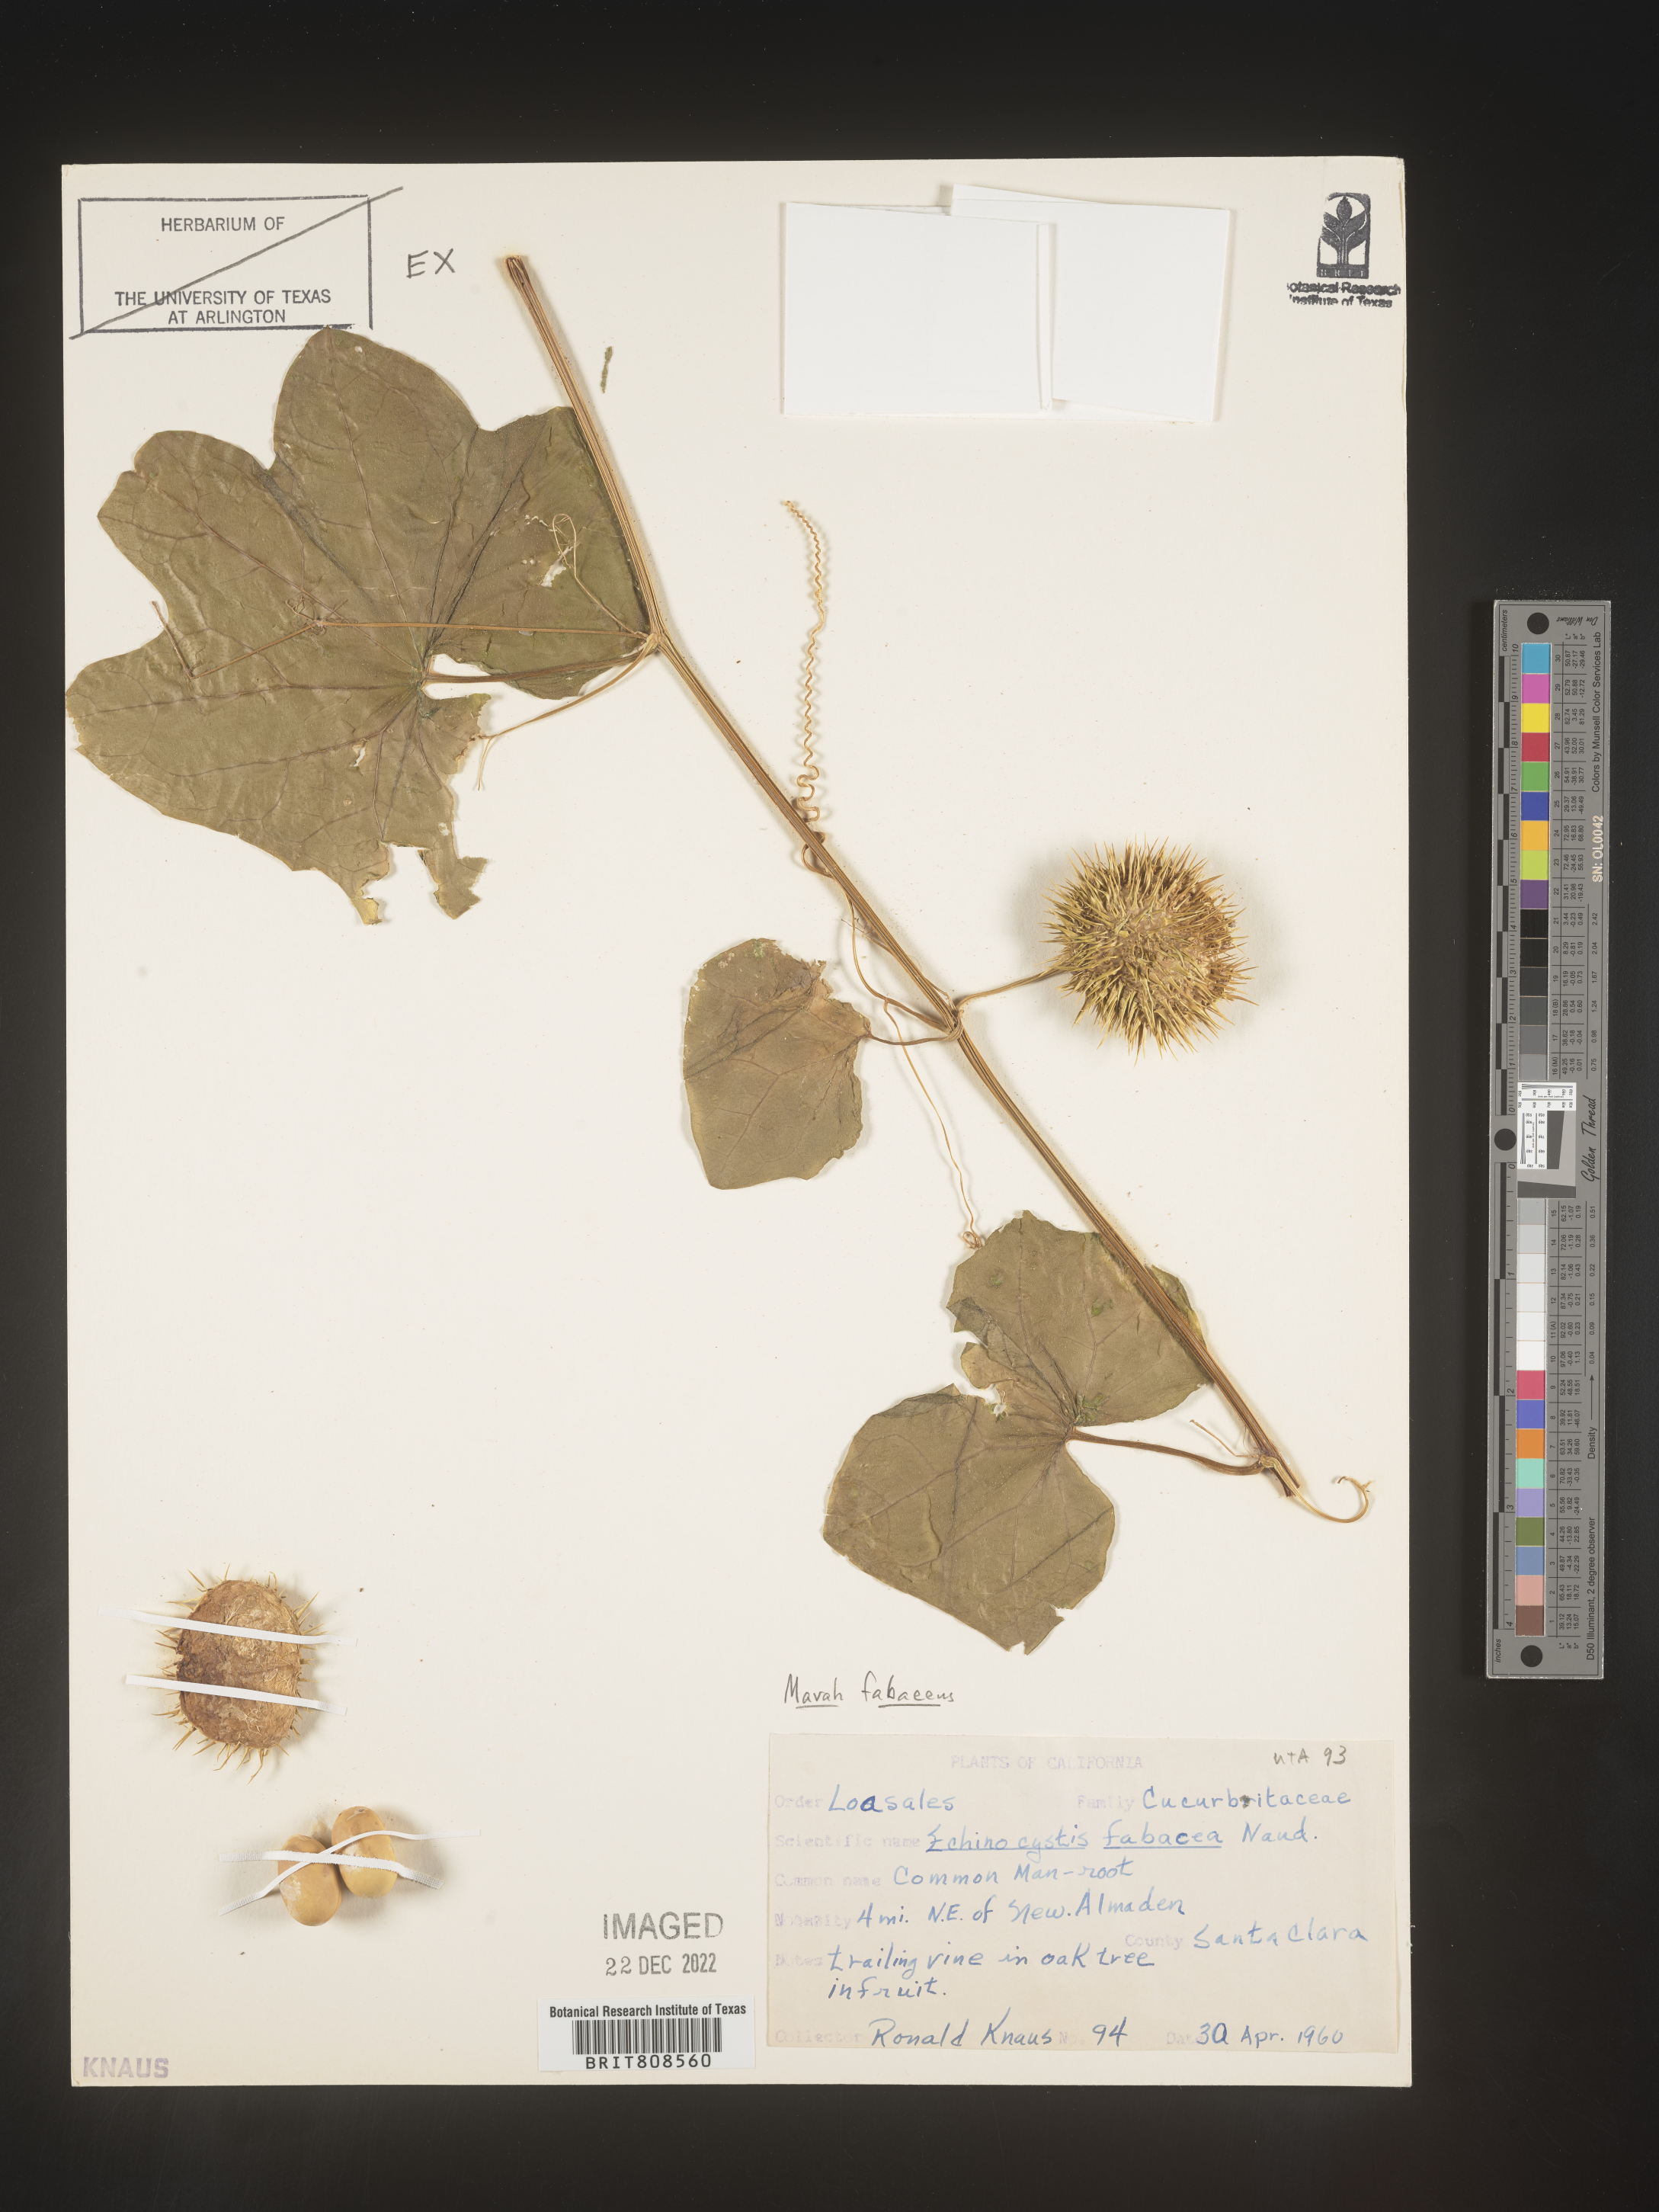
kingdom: Plantae
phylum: Tracheophyta
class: Magnoliopsida
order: Cucurbitales
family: Cucurbitaceae
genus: Marah
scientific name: Marah
